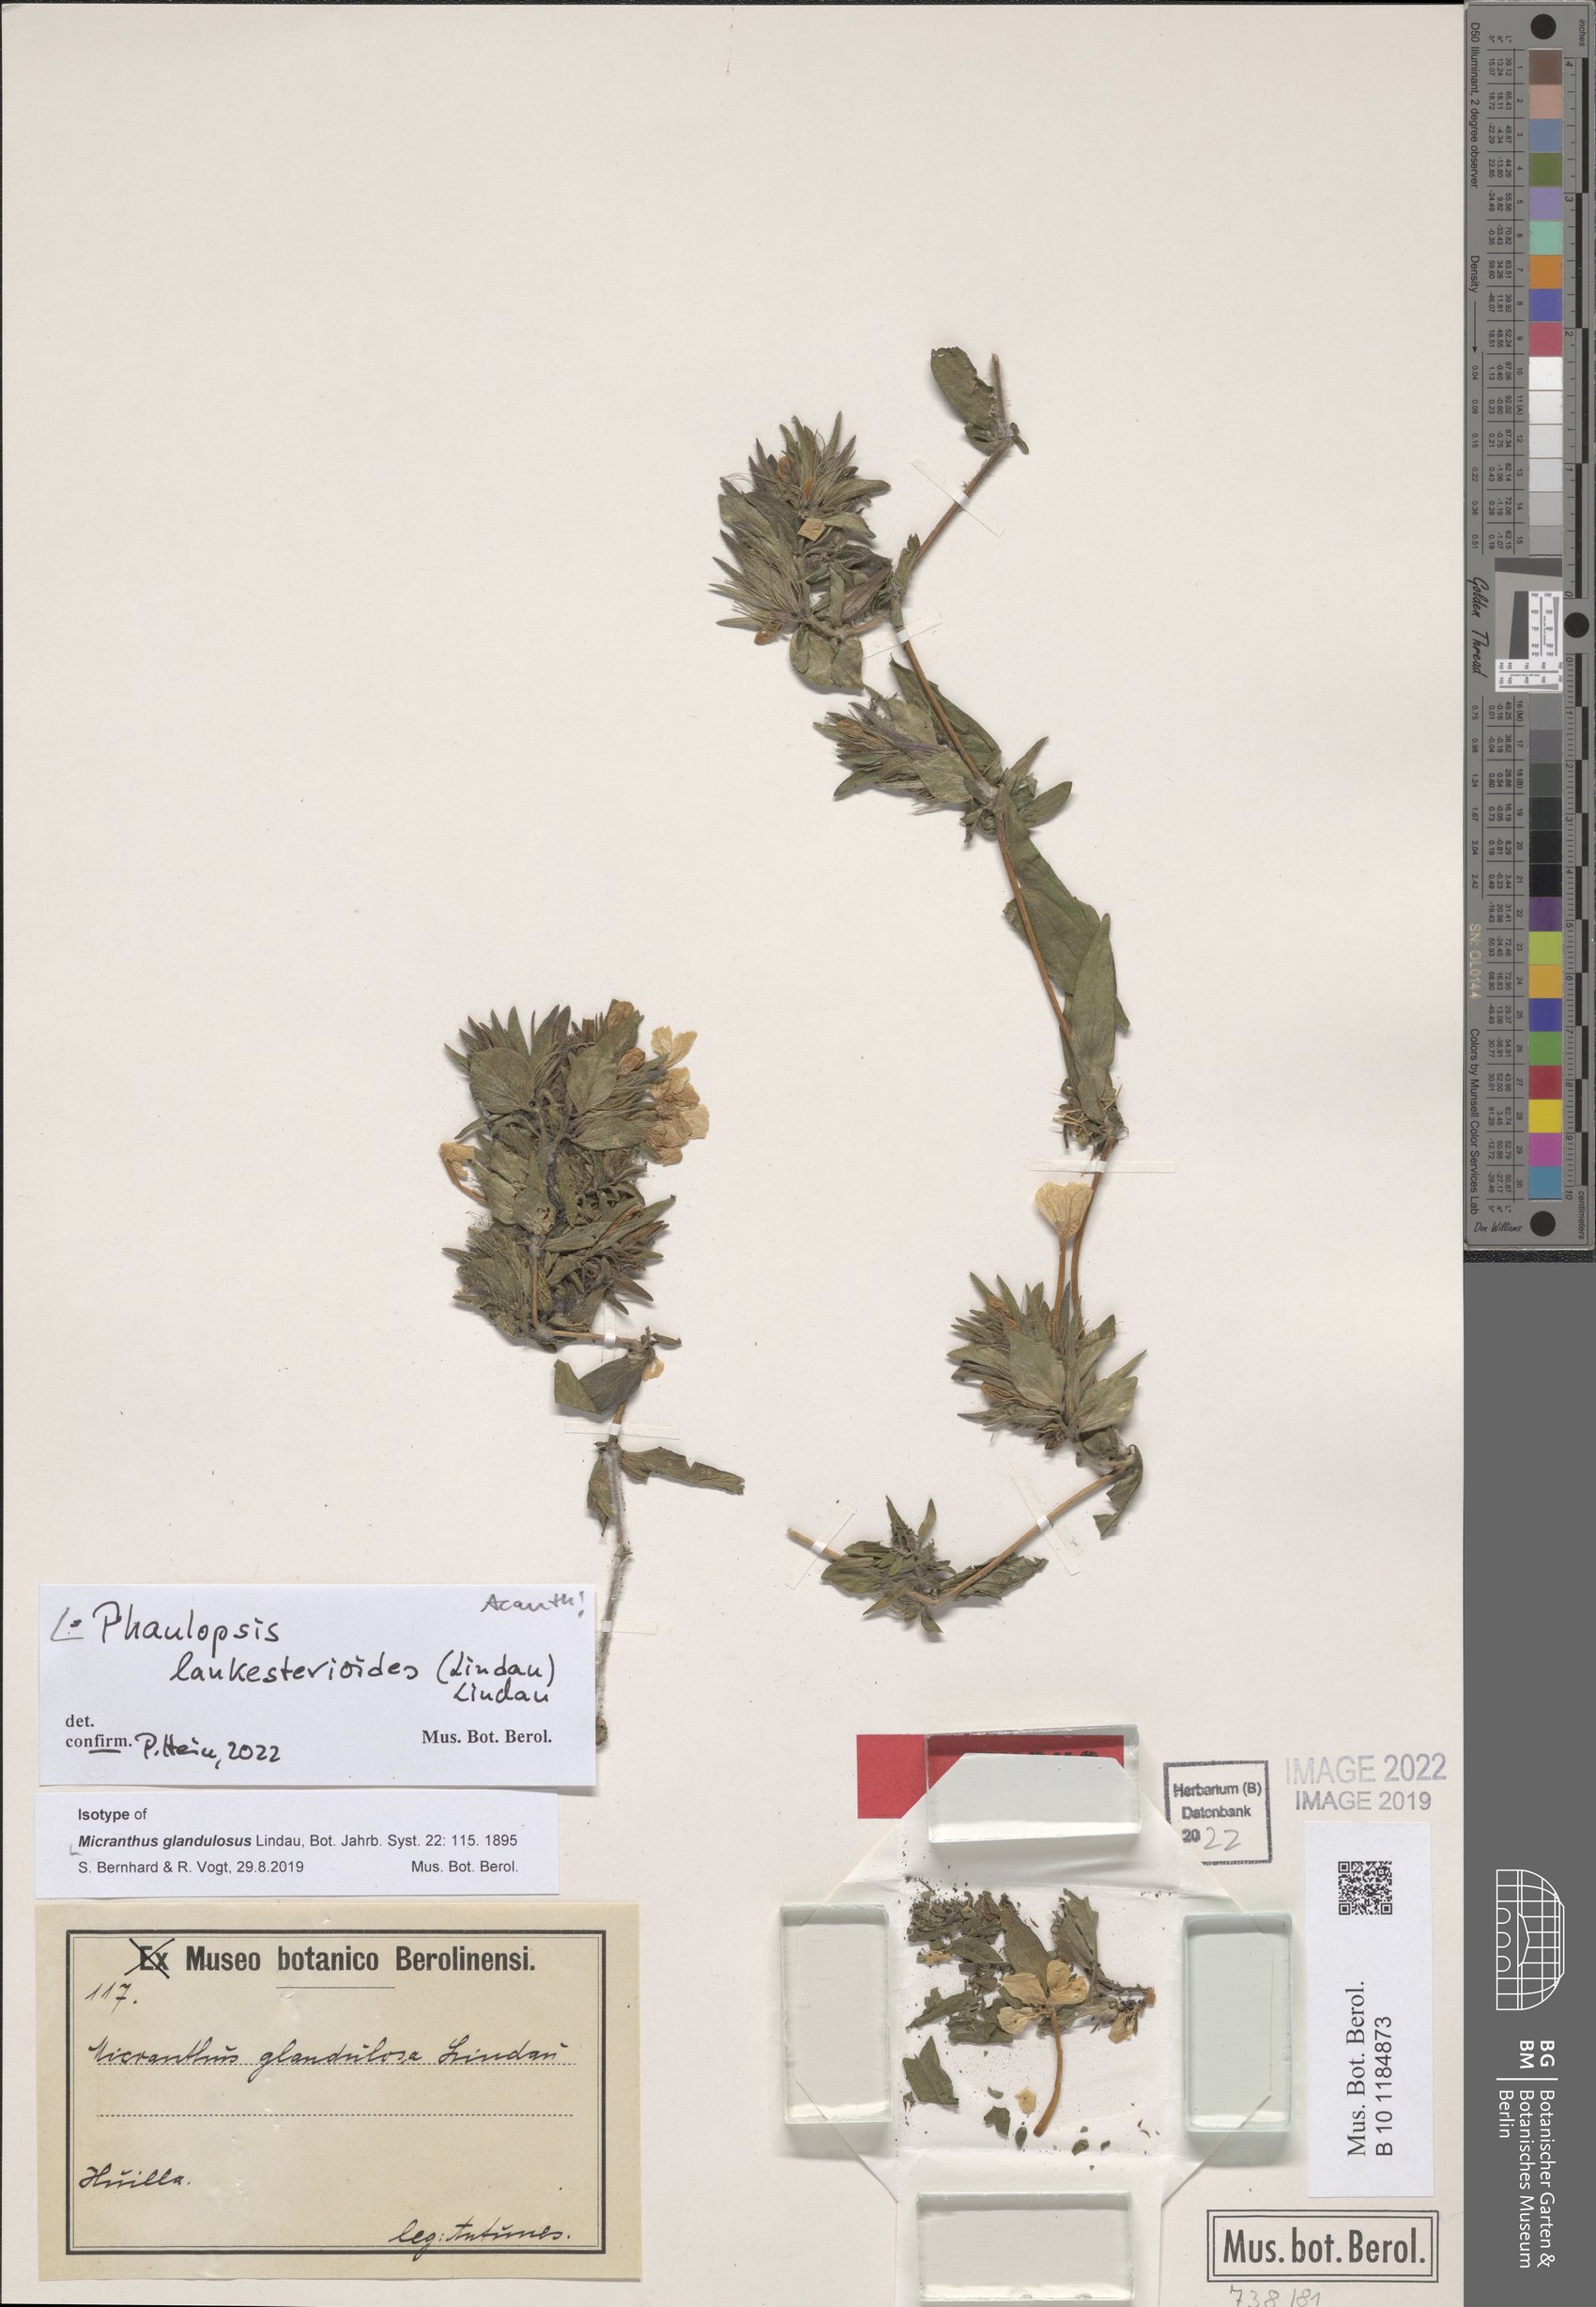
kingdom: Plantae
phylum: Tracheophyta
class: Magnoliopsida
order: Lamiales
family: Acanthaceae
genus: Phaulopsis
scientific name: Phaulopsis lankesterioides
